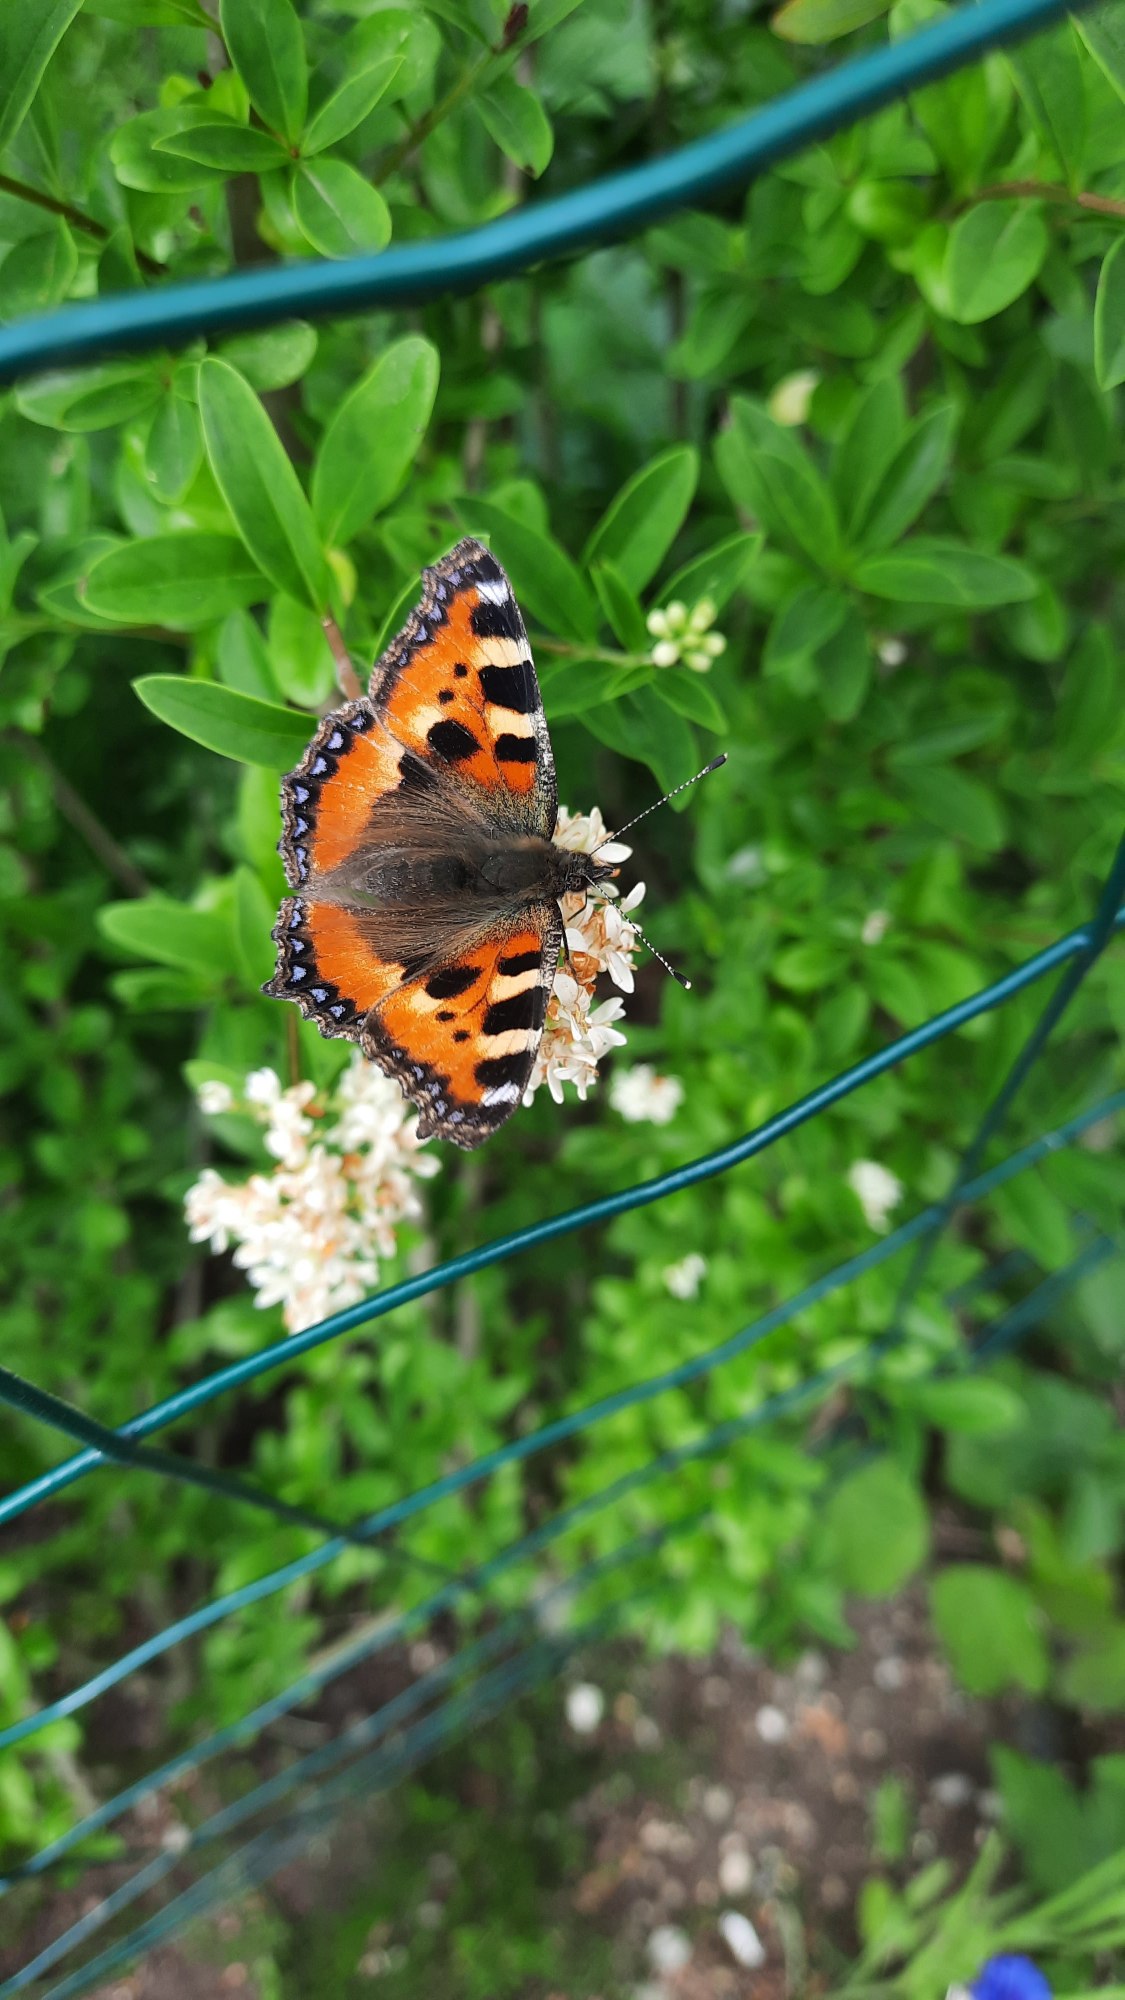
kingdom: Animalia
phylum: Arthropoda
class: Insecta
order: Lepidoptera
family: Nymphalidae
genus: Aglais
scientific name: Aglais urticae
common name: Nældens takvinge
